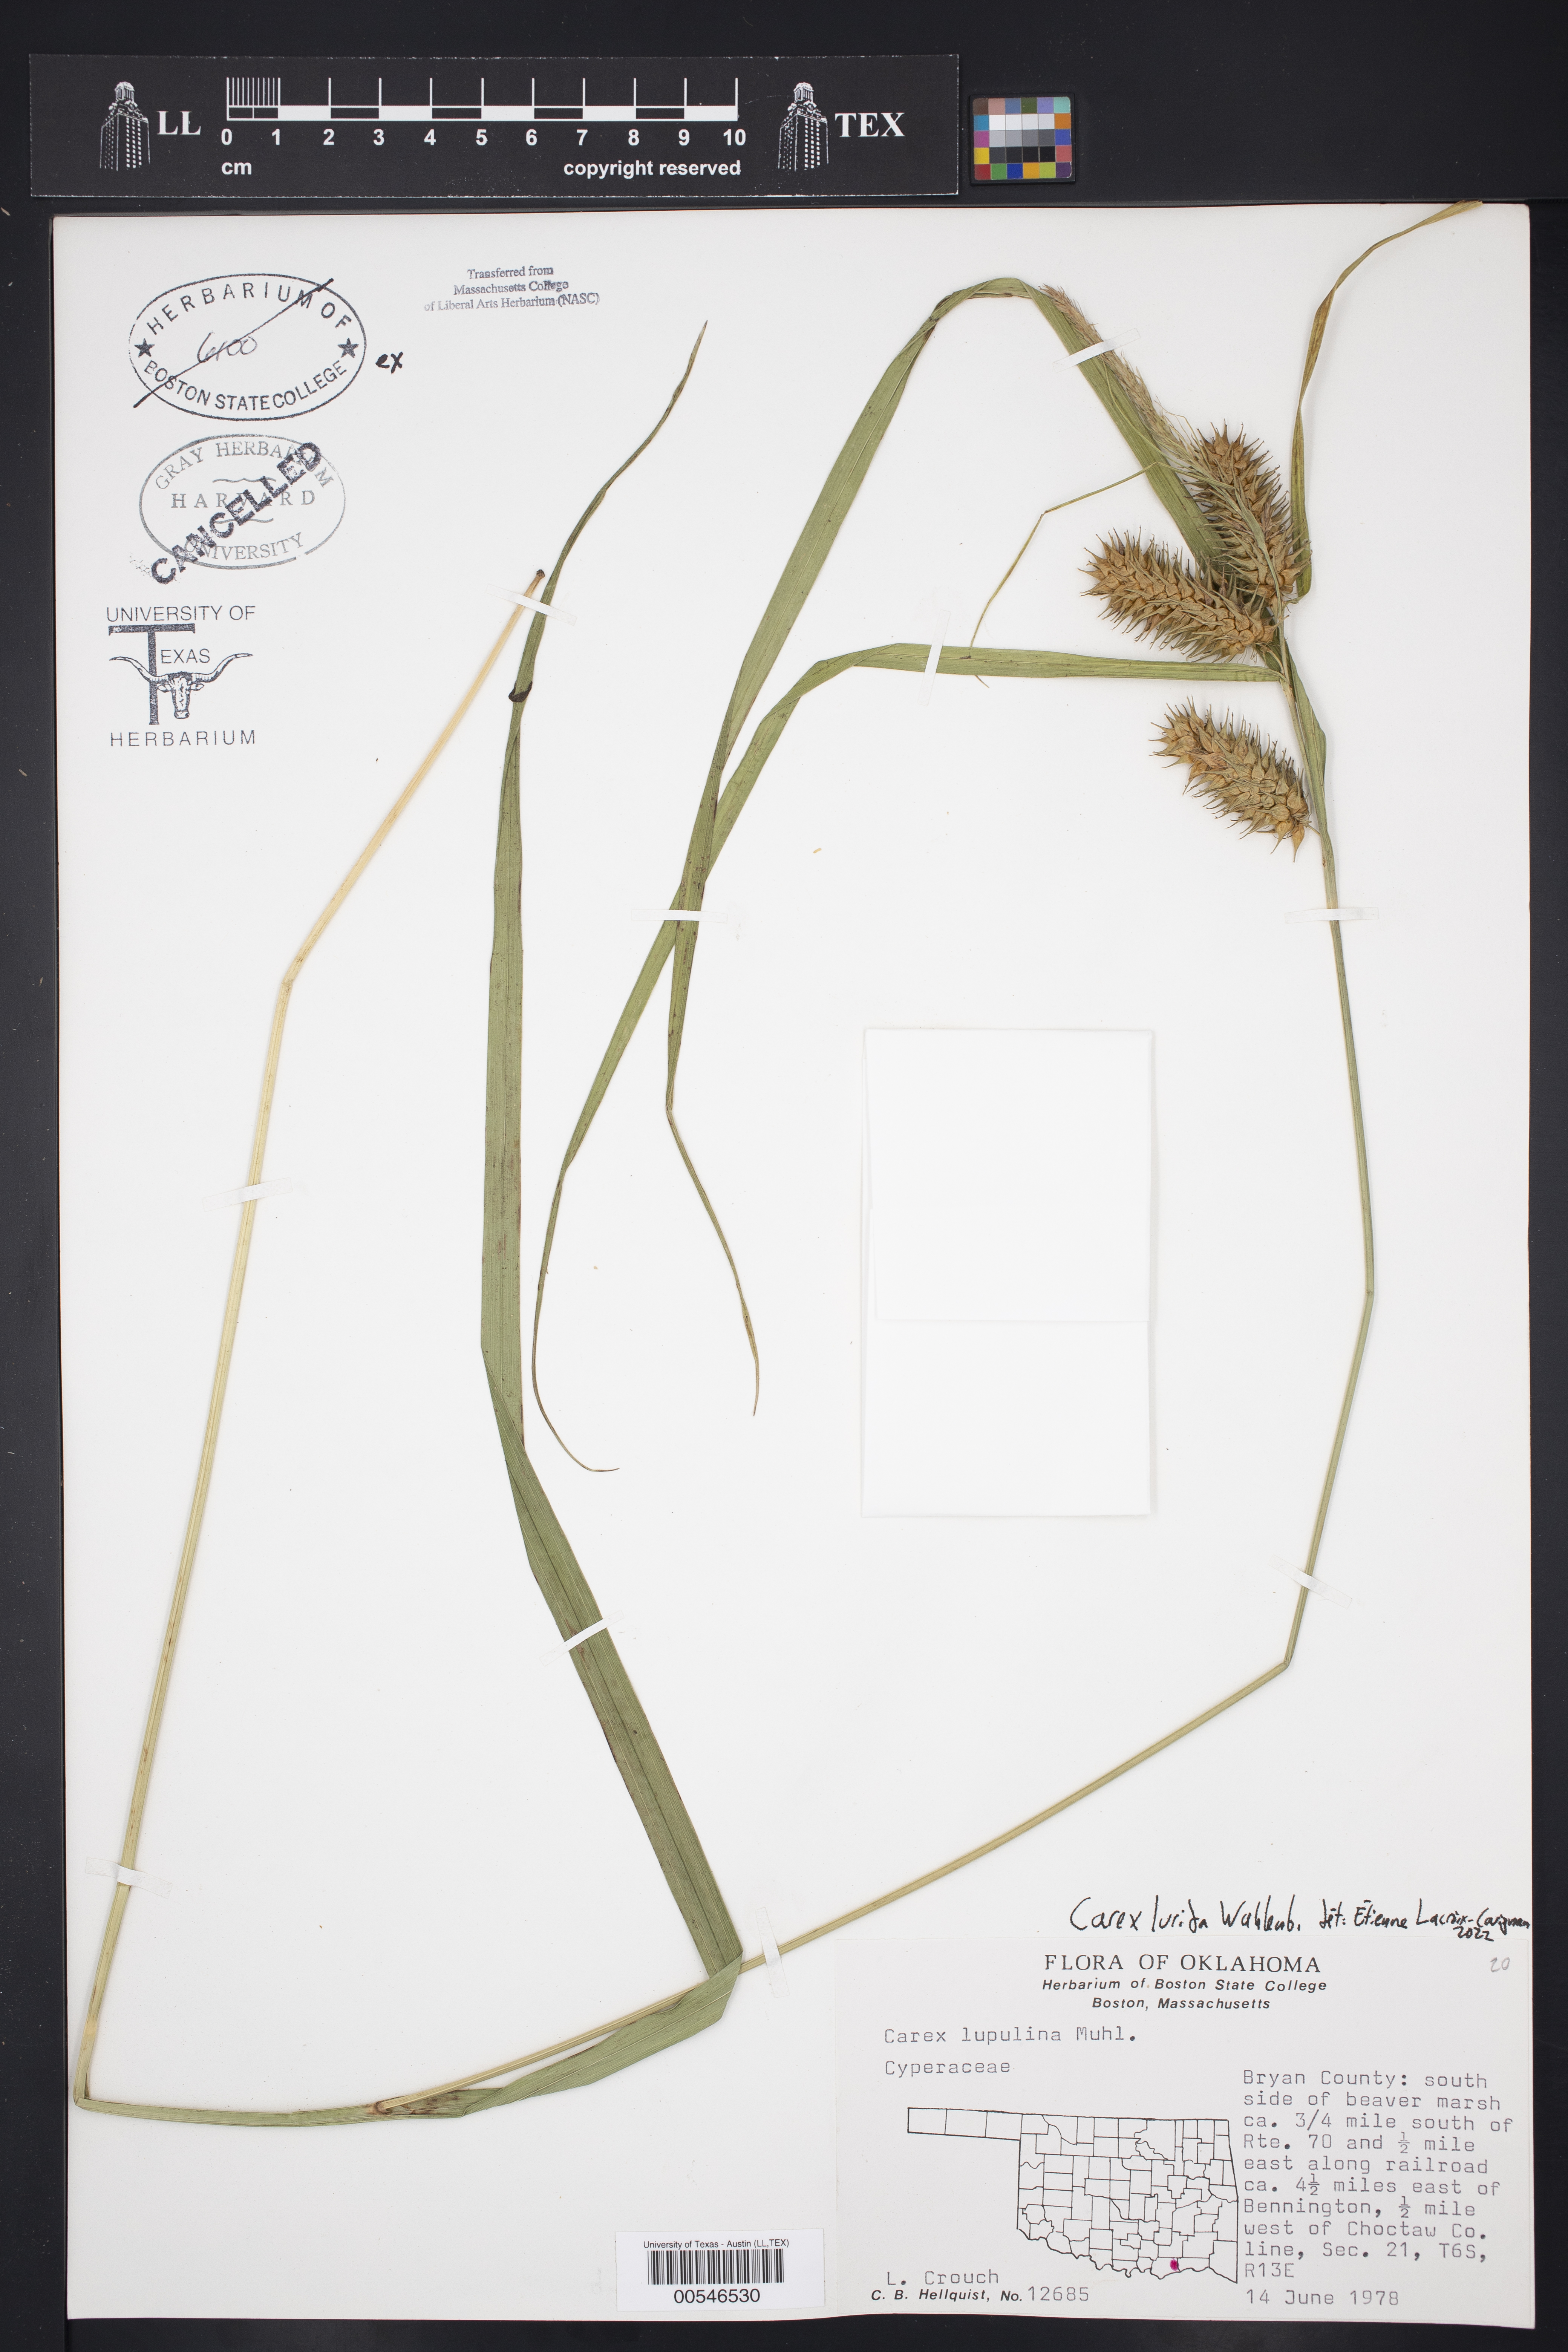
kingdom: Plantae
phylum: Tracheophyta
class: Liliopsida
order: Poales
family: Cyperaceae
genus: Carex
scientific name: Carex lurida
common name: Sallow sedge
